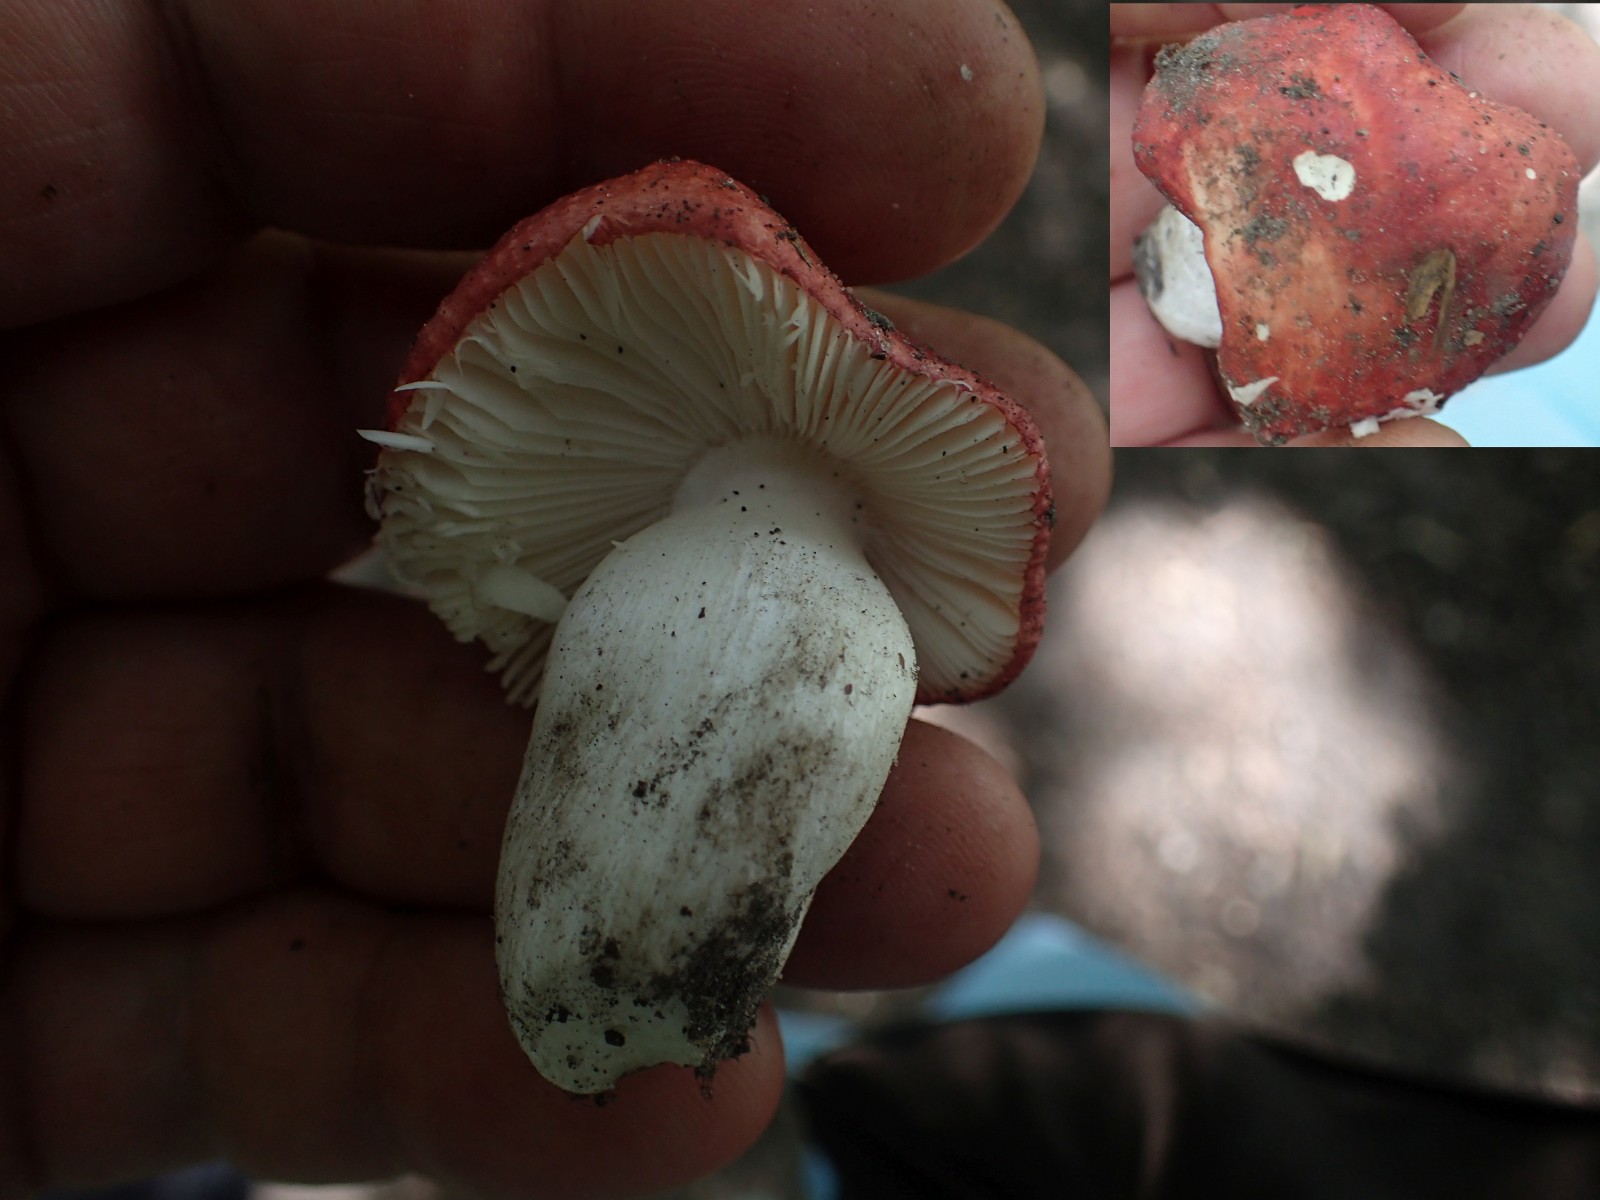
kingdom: Fungi
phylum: Basidiomycota
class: Agaricomycetes
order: Russulales
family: Russulaceae
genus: Russula
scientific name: Russula
